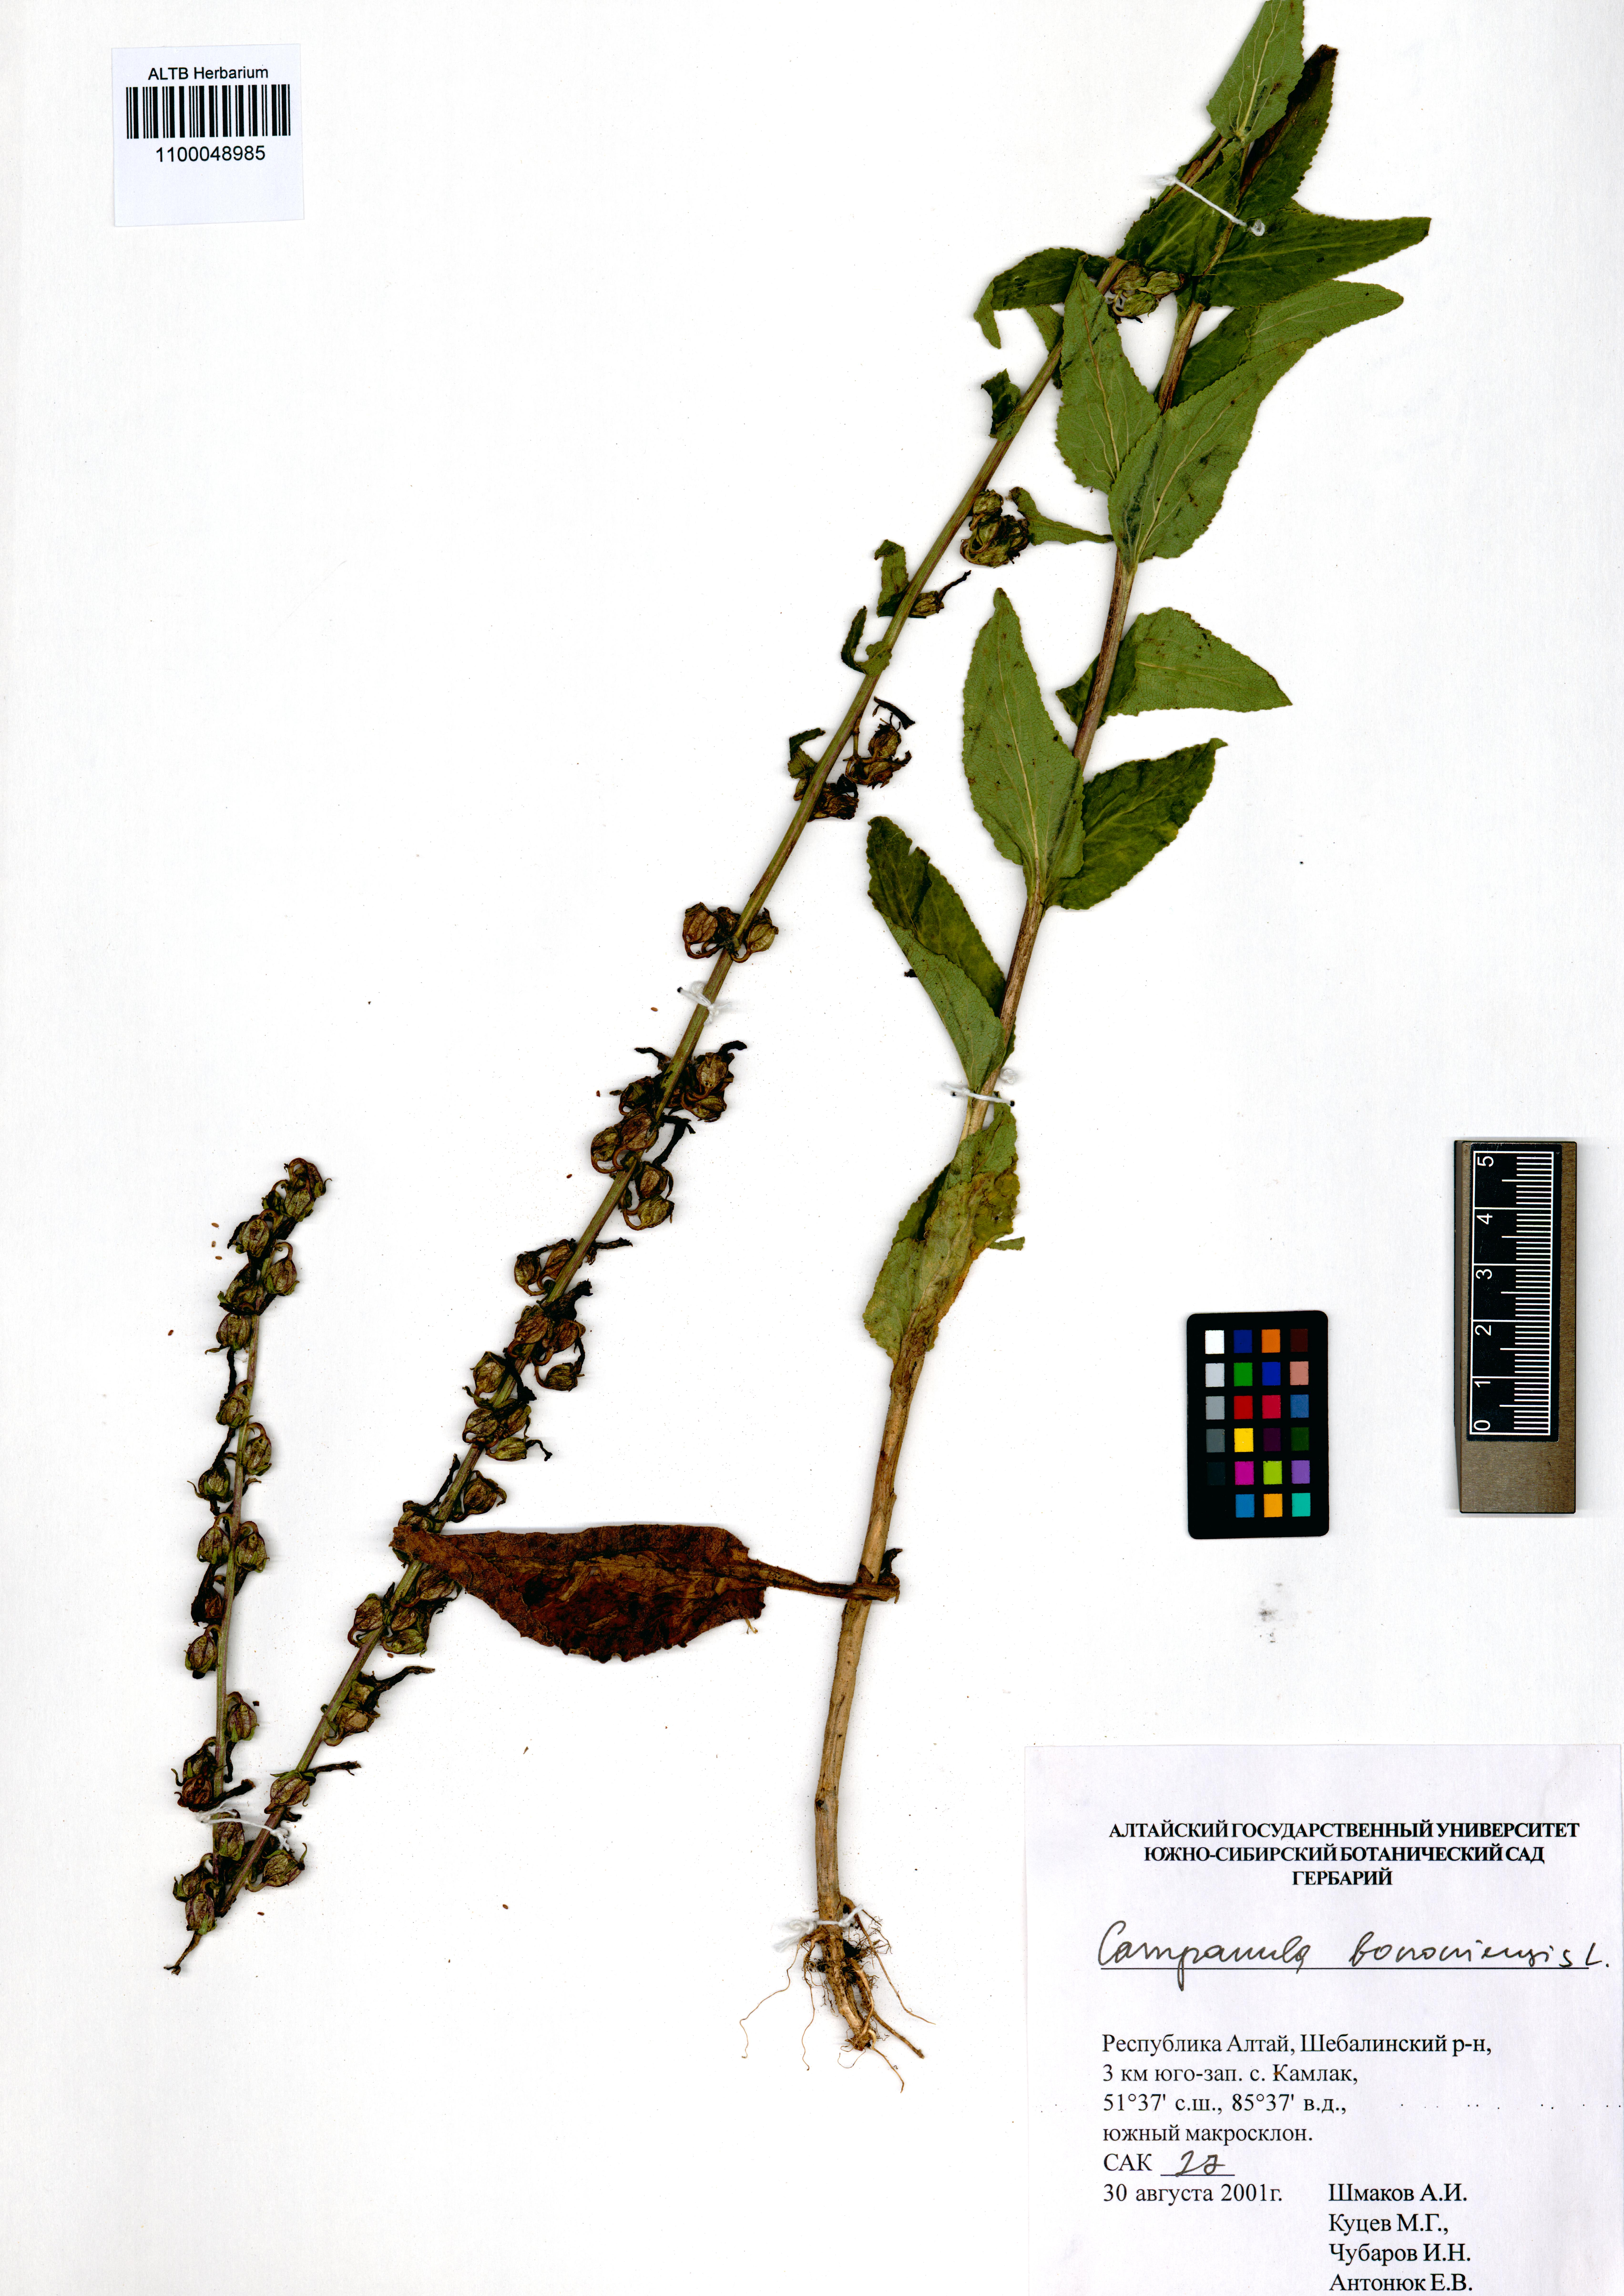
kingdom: Plantae
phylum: Tracheophyta
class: Magnoliopsida
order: Asterales
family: Campanulaceae
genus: Campanula
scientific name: Campanula bononiensis
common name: Pale bellflower
